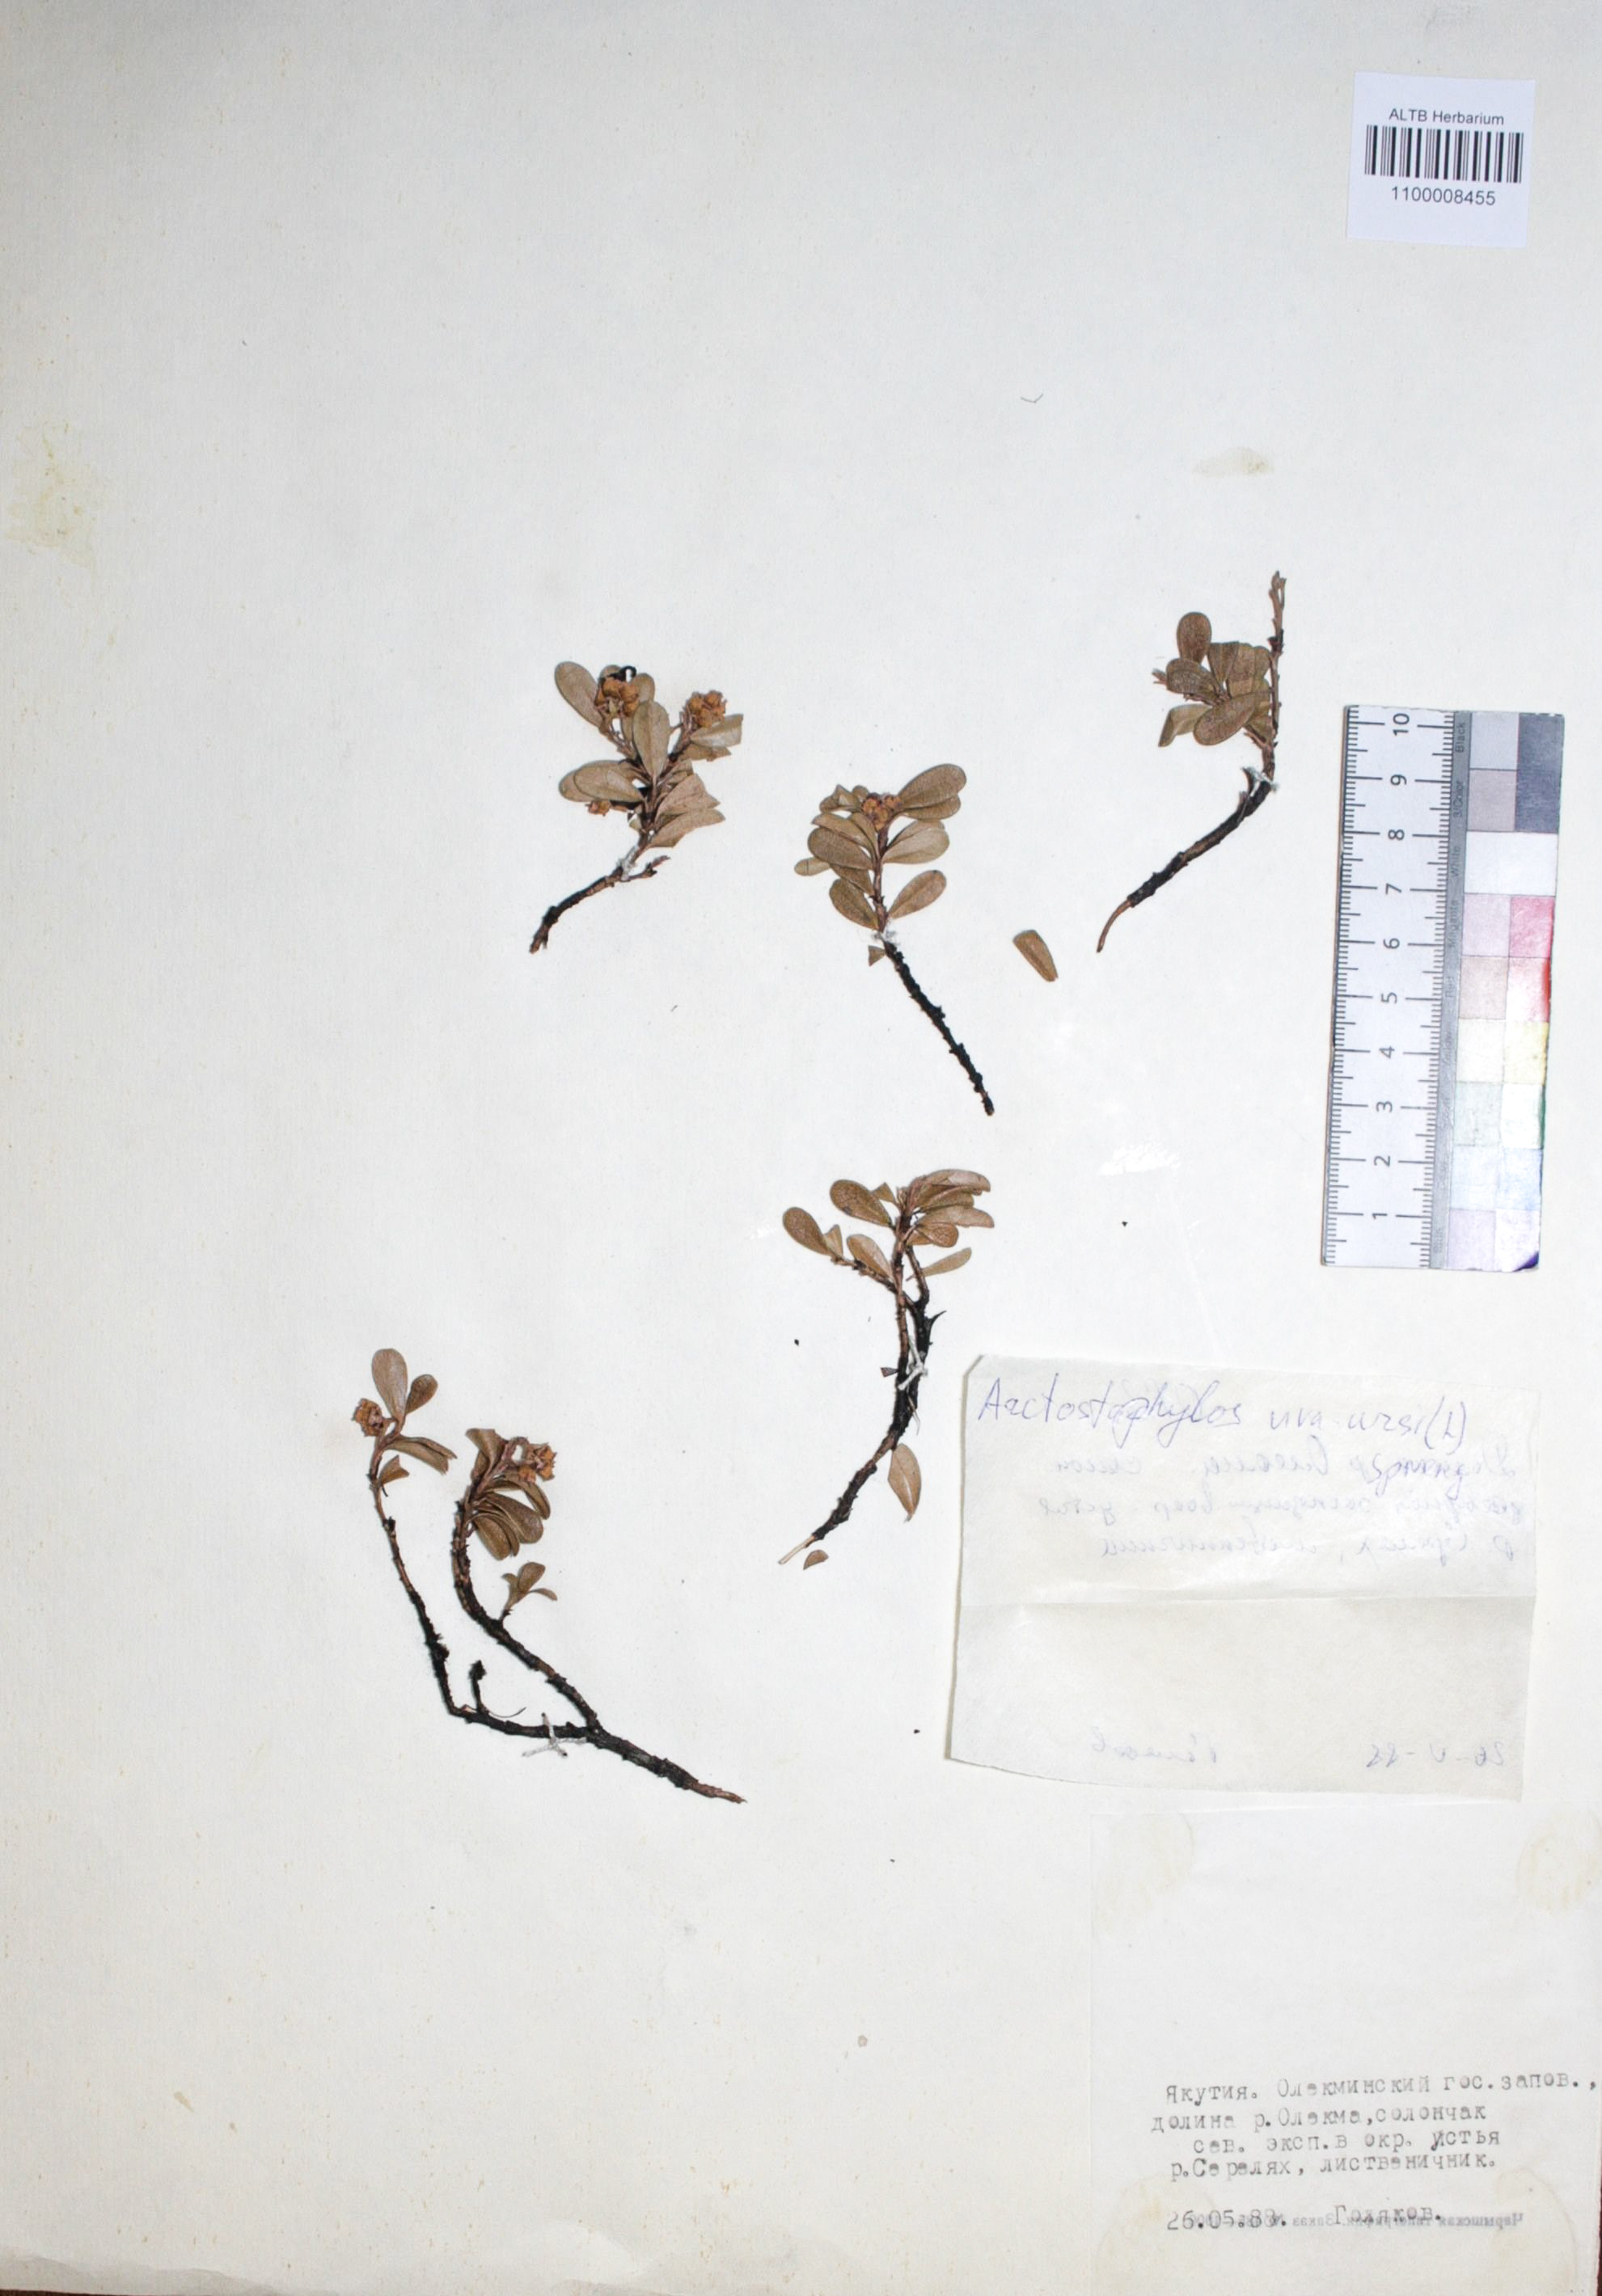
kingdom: Plantae
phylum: Tracheophyta
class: Magnoliopsida
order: Ericales
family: Ericaceae
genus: Arctostaphylos
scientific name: Arctostaphylos uva-ursi
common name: Bearberry
